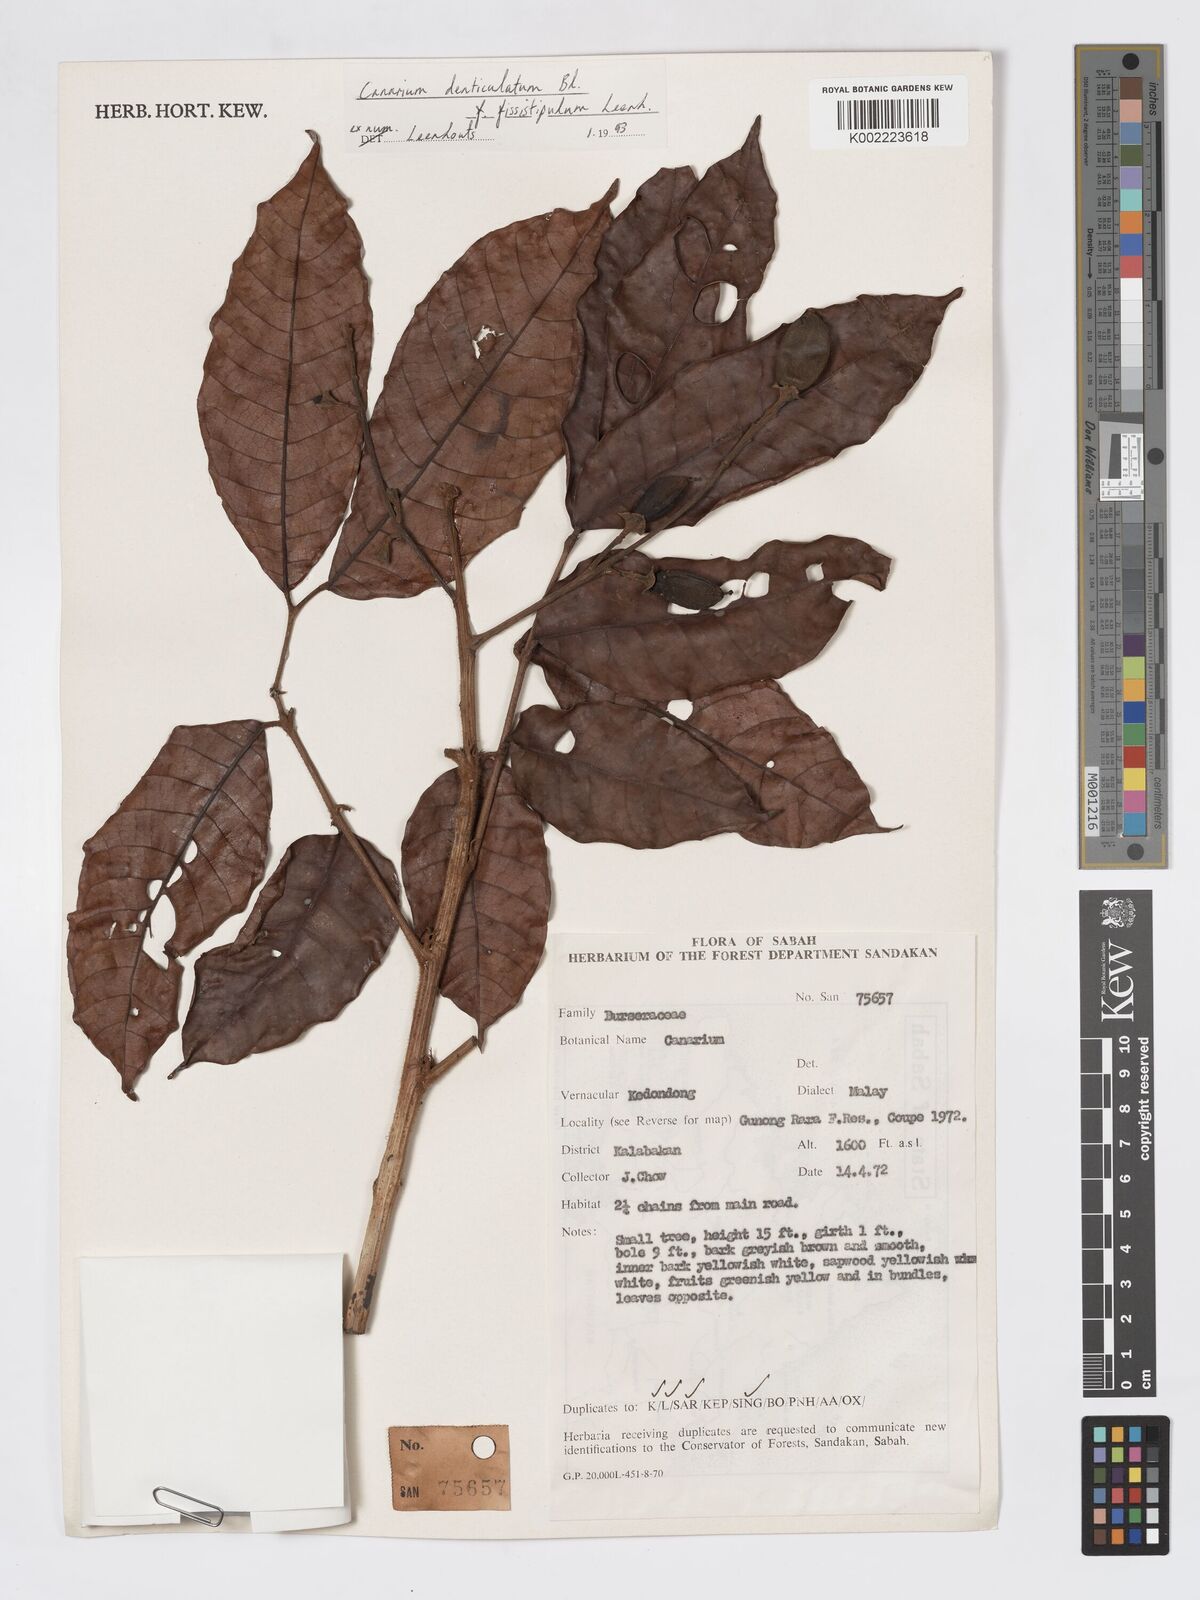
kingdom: Plantae
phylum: Tracheophyta
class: Magnoliopsida
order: Sapindales
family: Burseraceae
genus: Canarium
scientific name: Canarium denticulatum
